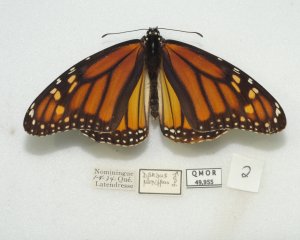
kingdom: Animalia
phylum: Arthropoda
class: Insecta
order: Lepidoptera
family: Nymphalidae
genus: Danaus
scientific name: Danaus plexippus
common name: Monarch
